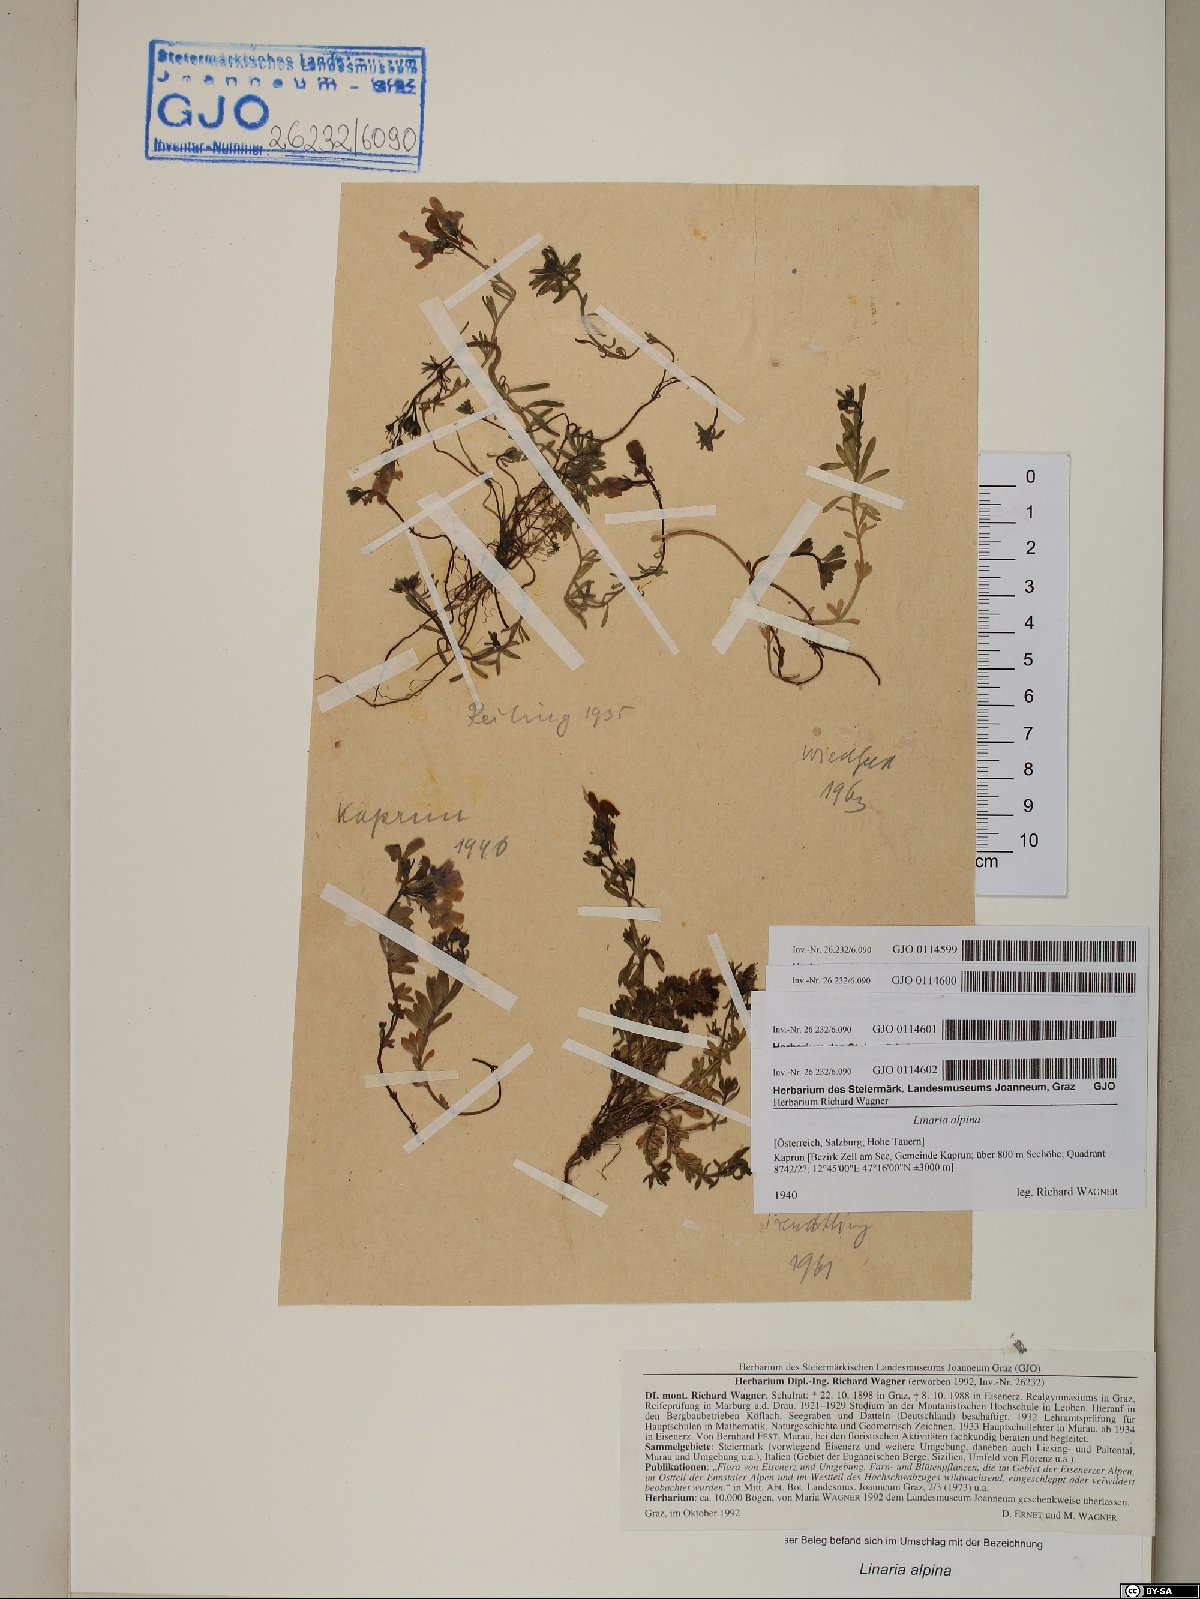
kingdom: Plantae
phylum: Tracheophyta
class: Magnoliopsida
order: Lamiales
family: Plantaginaceae
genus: Linaria
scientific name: Linaria alpina
